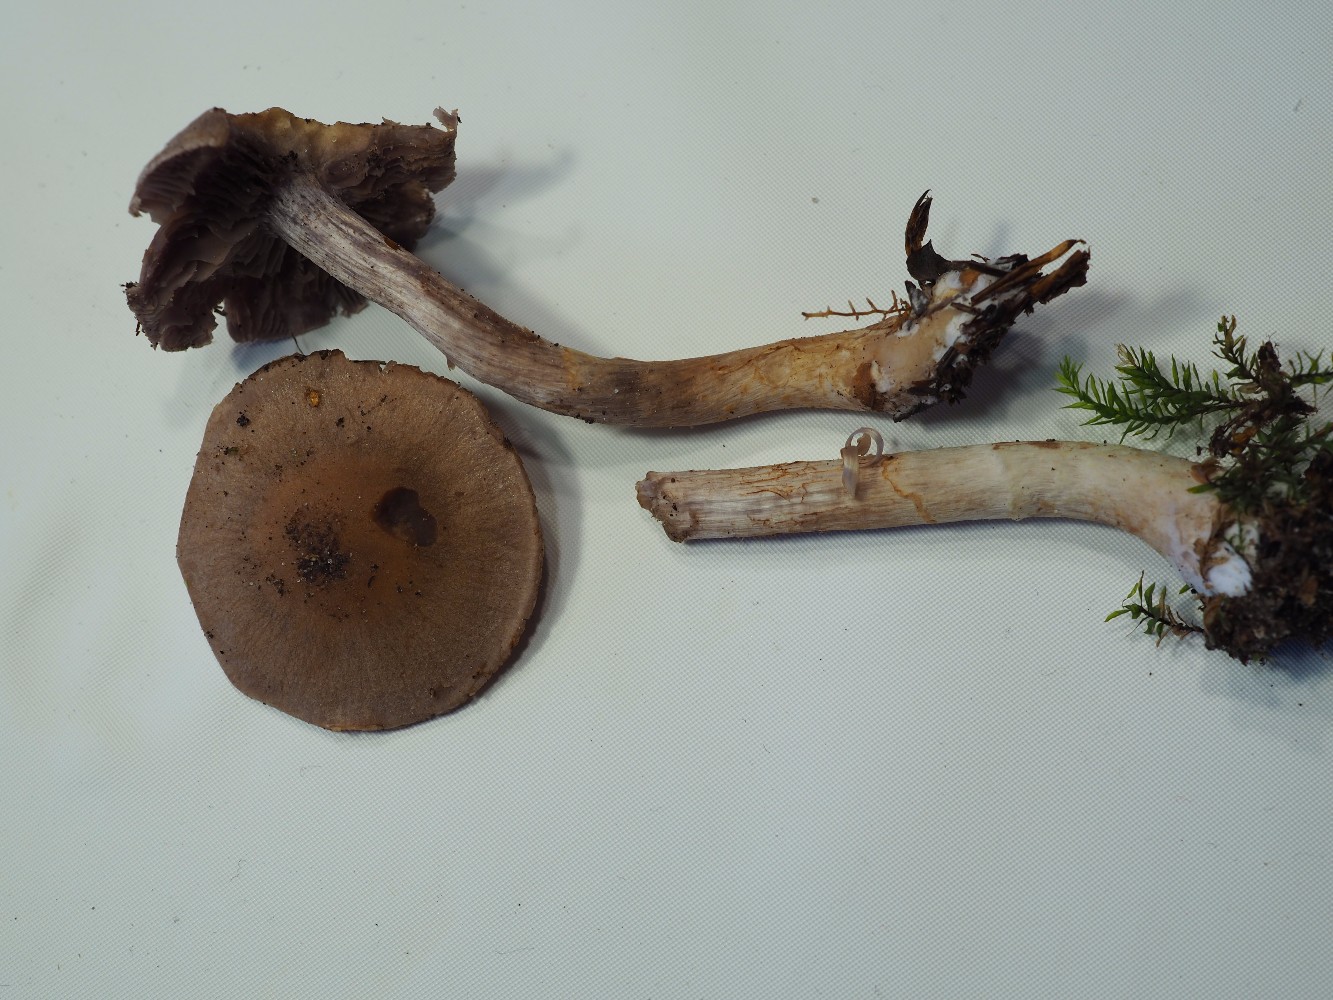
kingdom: Fungi
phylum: Basidiomycota
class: Agaricomycetes
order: Agaricales
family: Cortinariaceae
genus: Cortinarius
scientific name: Cortinarius anomalus
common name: Variable webcap
